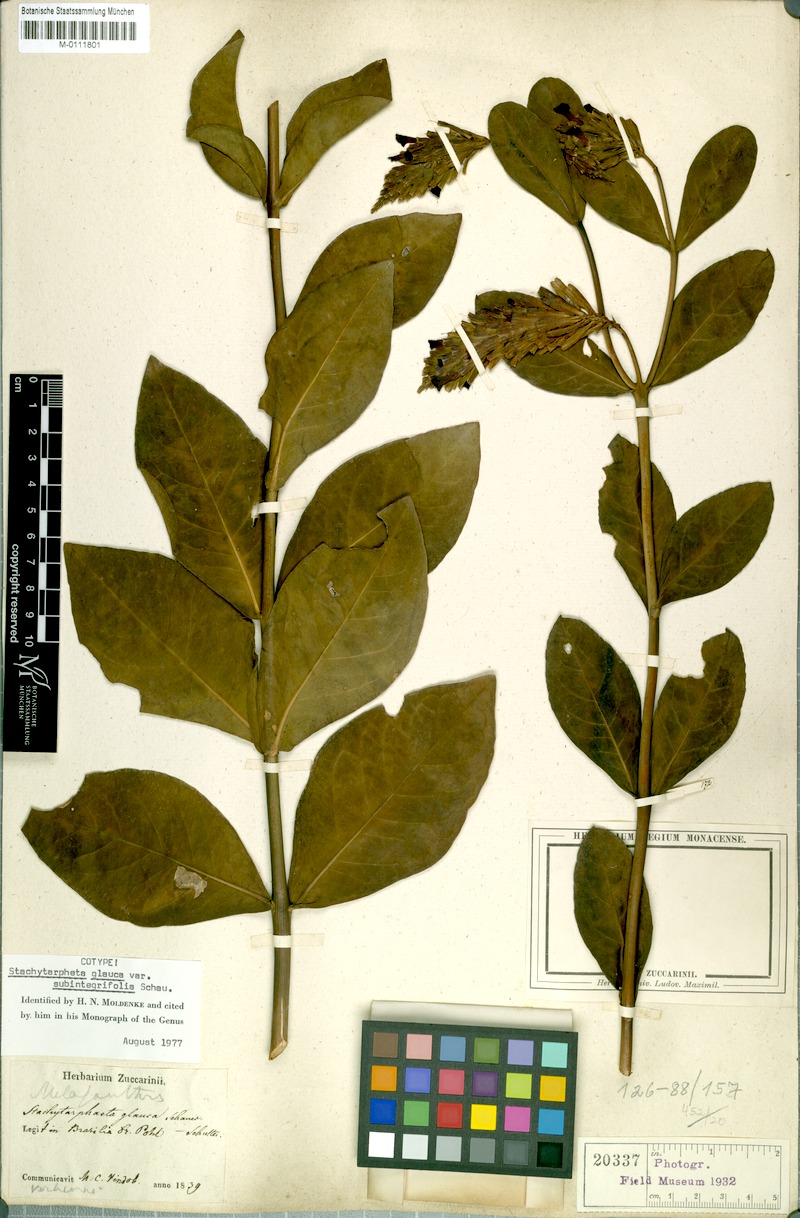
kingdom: Plantae
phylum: Tracheophyta
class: Magnoliopsida
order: Lamiales
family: Verbenaceae
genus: Stachytarpheta
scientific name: Stachytarpheta integrifolia
